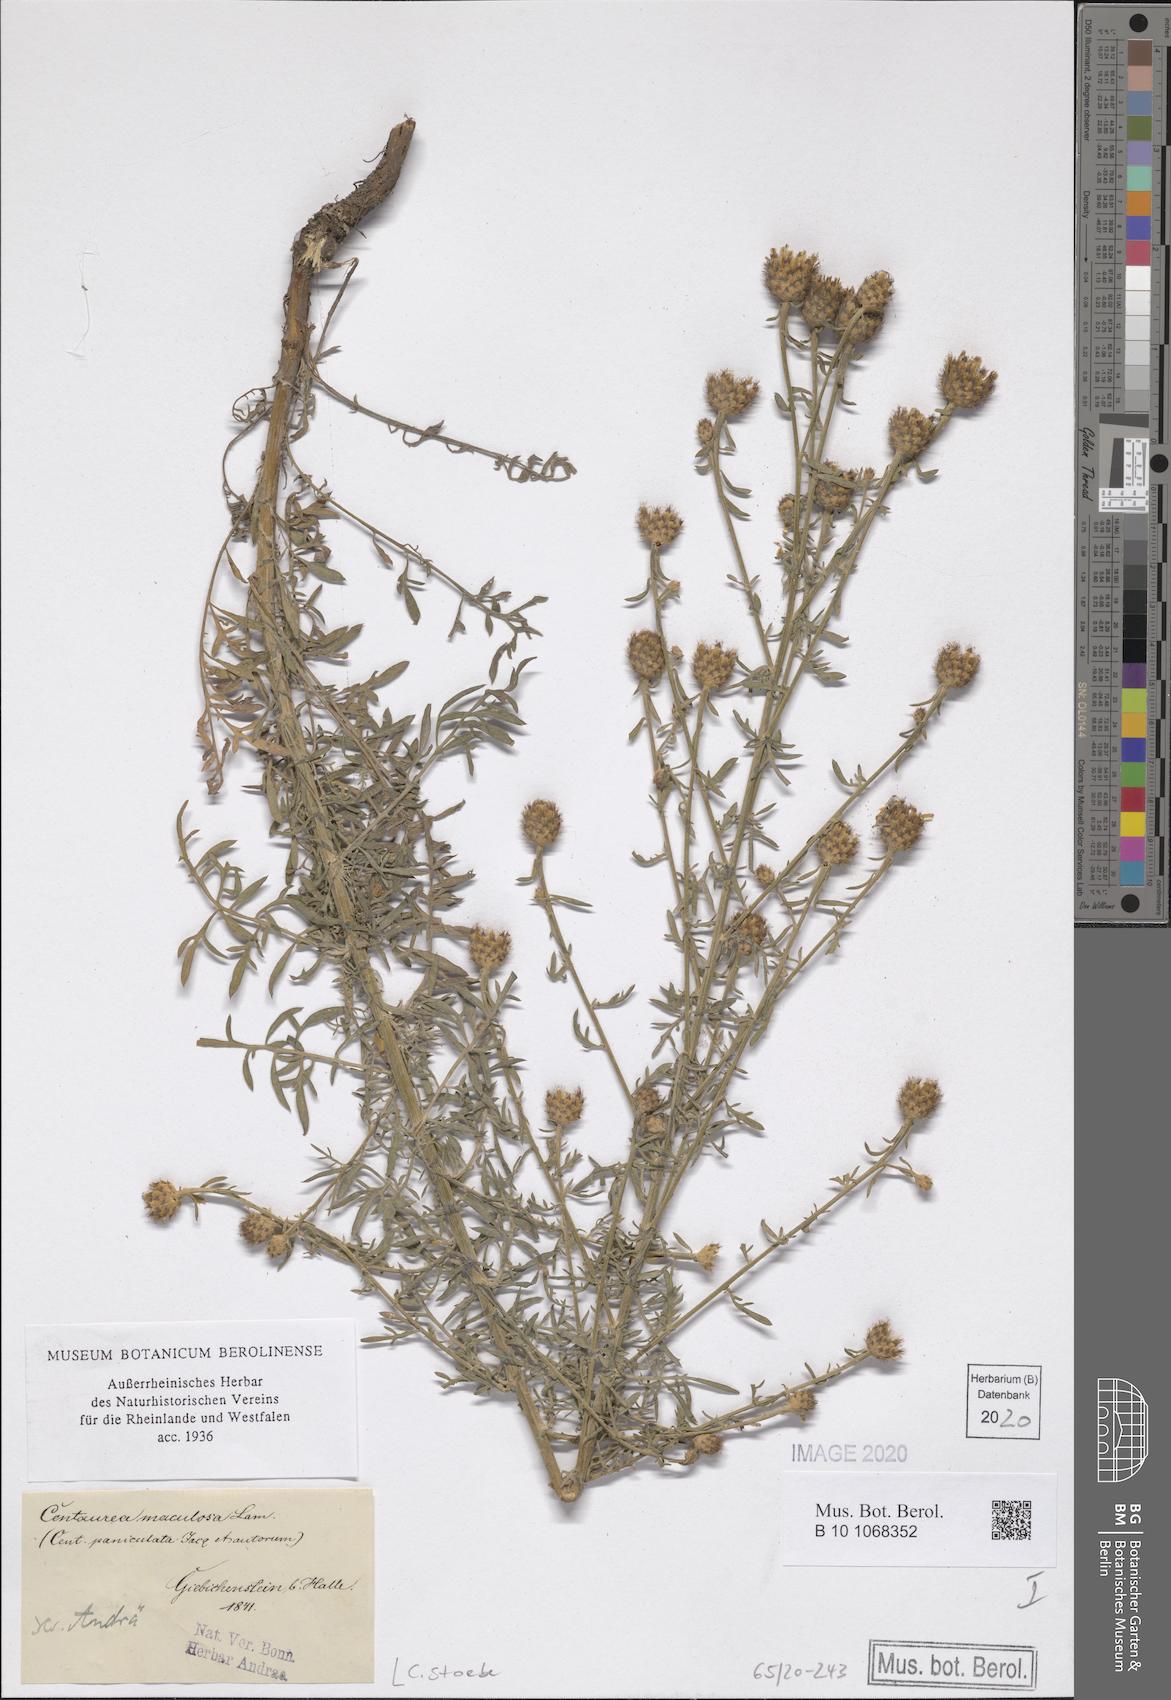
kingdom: Plantae
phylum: Tracheophyta
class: Magnoliopsida
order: Asterales
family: Asteraceae
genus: Centaurea
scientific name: Centaurea stoebe
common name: Spotted knapweed
